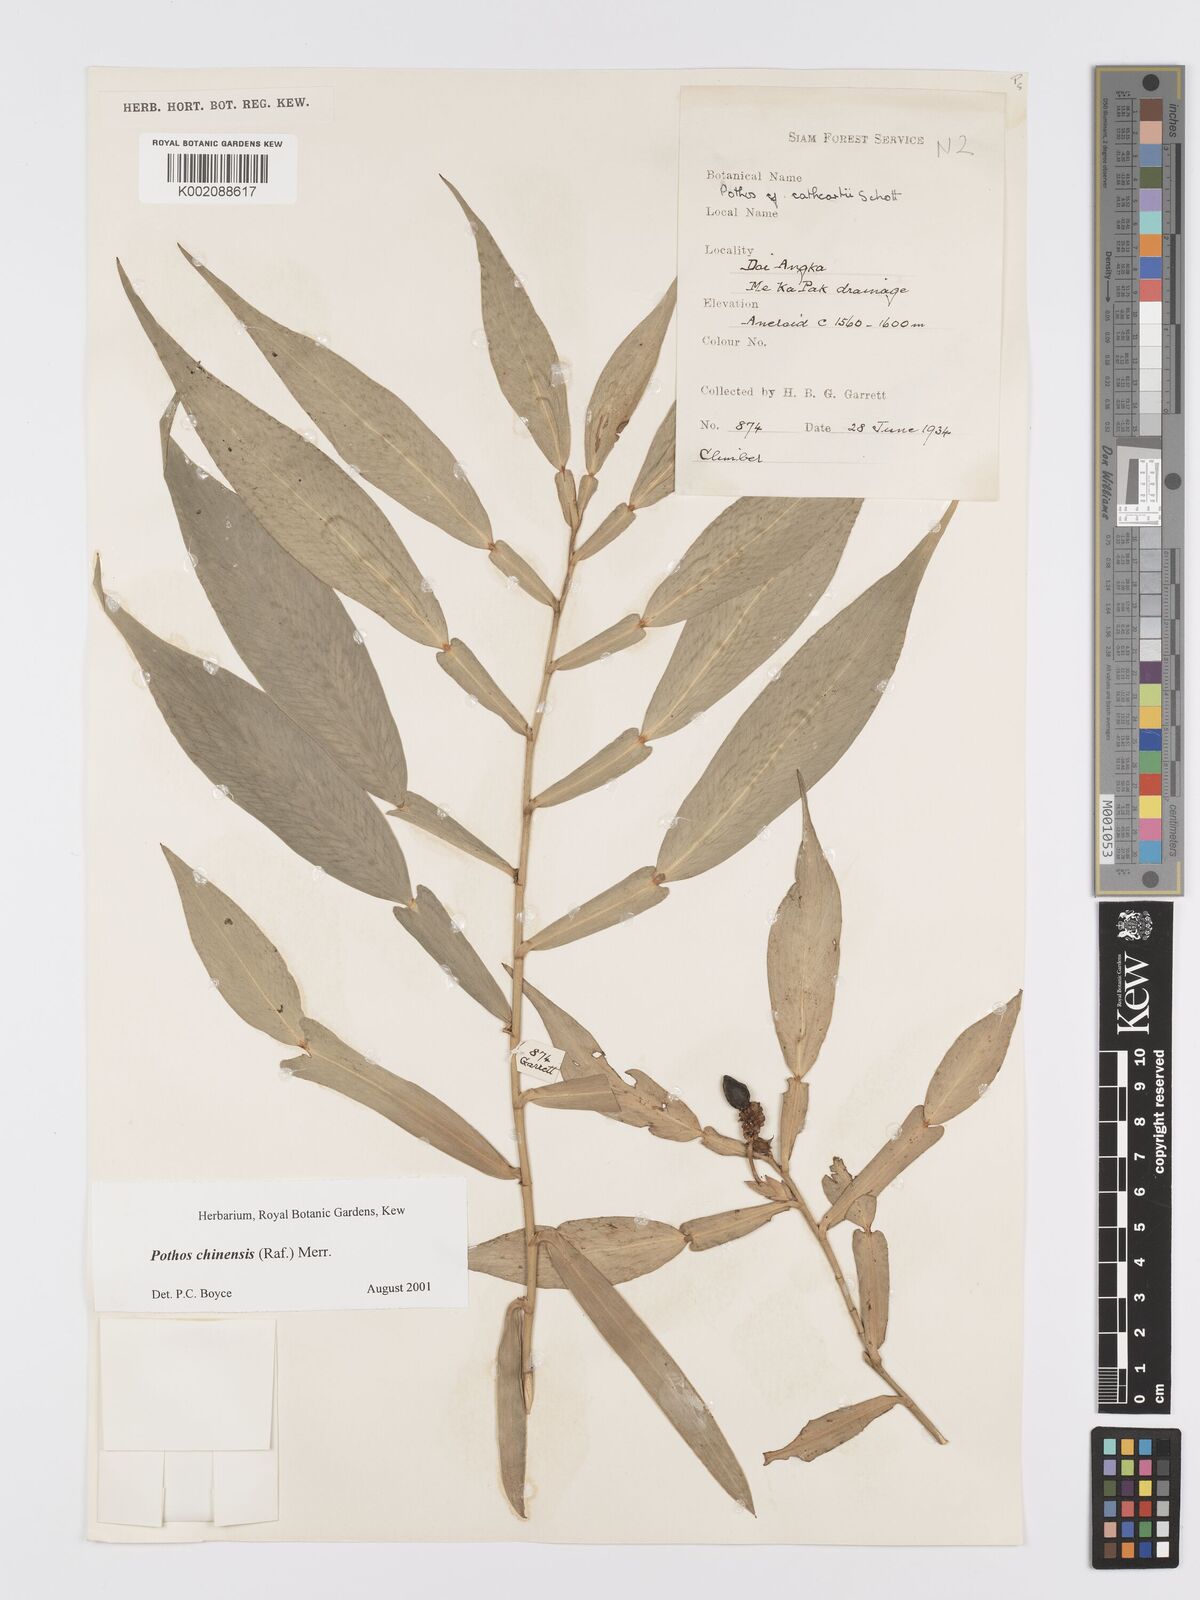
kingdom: Plantae
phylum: Tracheophyta
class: Liliopsida
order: Alismatales
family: Araceae
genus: Pothos
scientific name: Pothos chinensis
